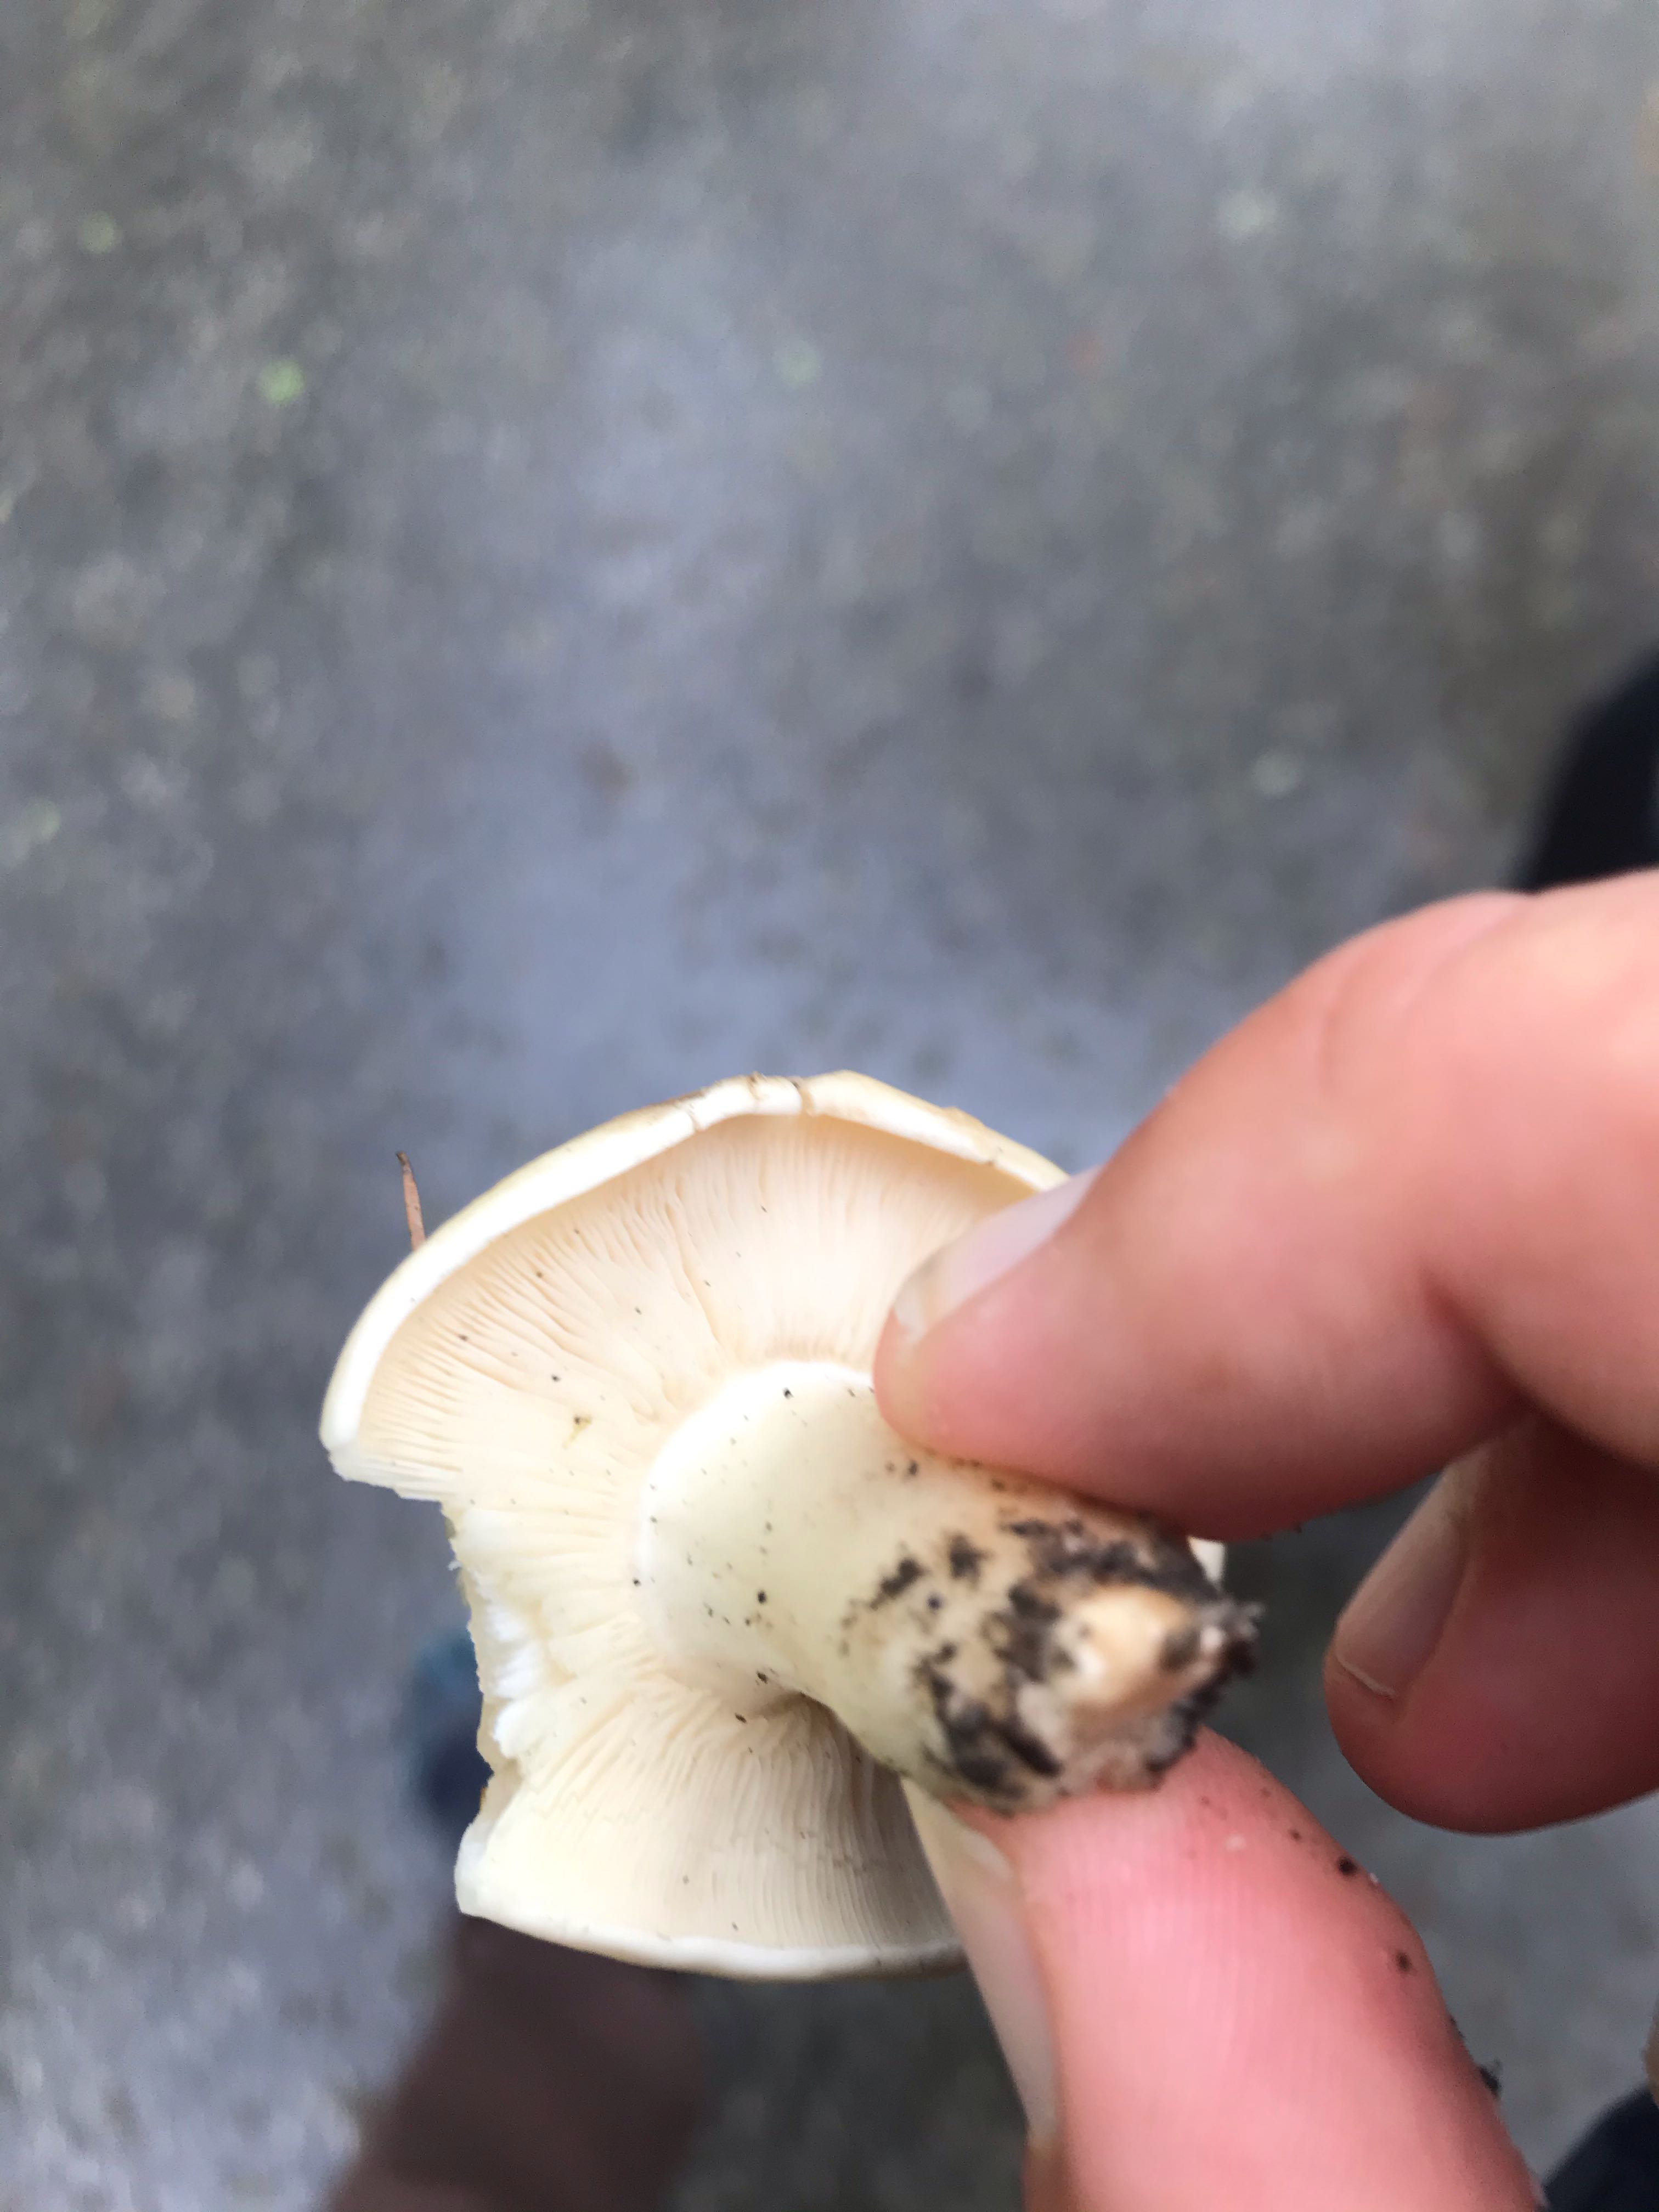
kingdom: Fungi
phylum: Basidiomycota
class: Agaricomycetes
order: Agaricales
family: Lyophyllaceae
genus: Calocybe
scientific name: Calocybe gambosa
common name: vårmusseron
